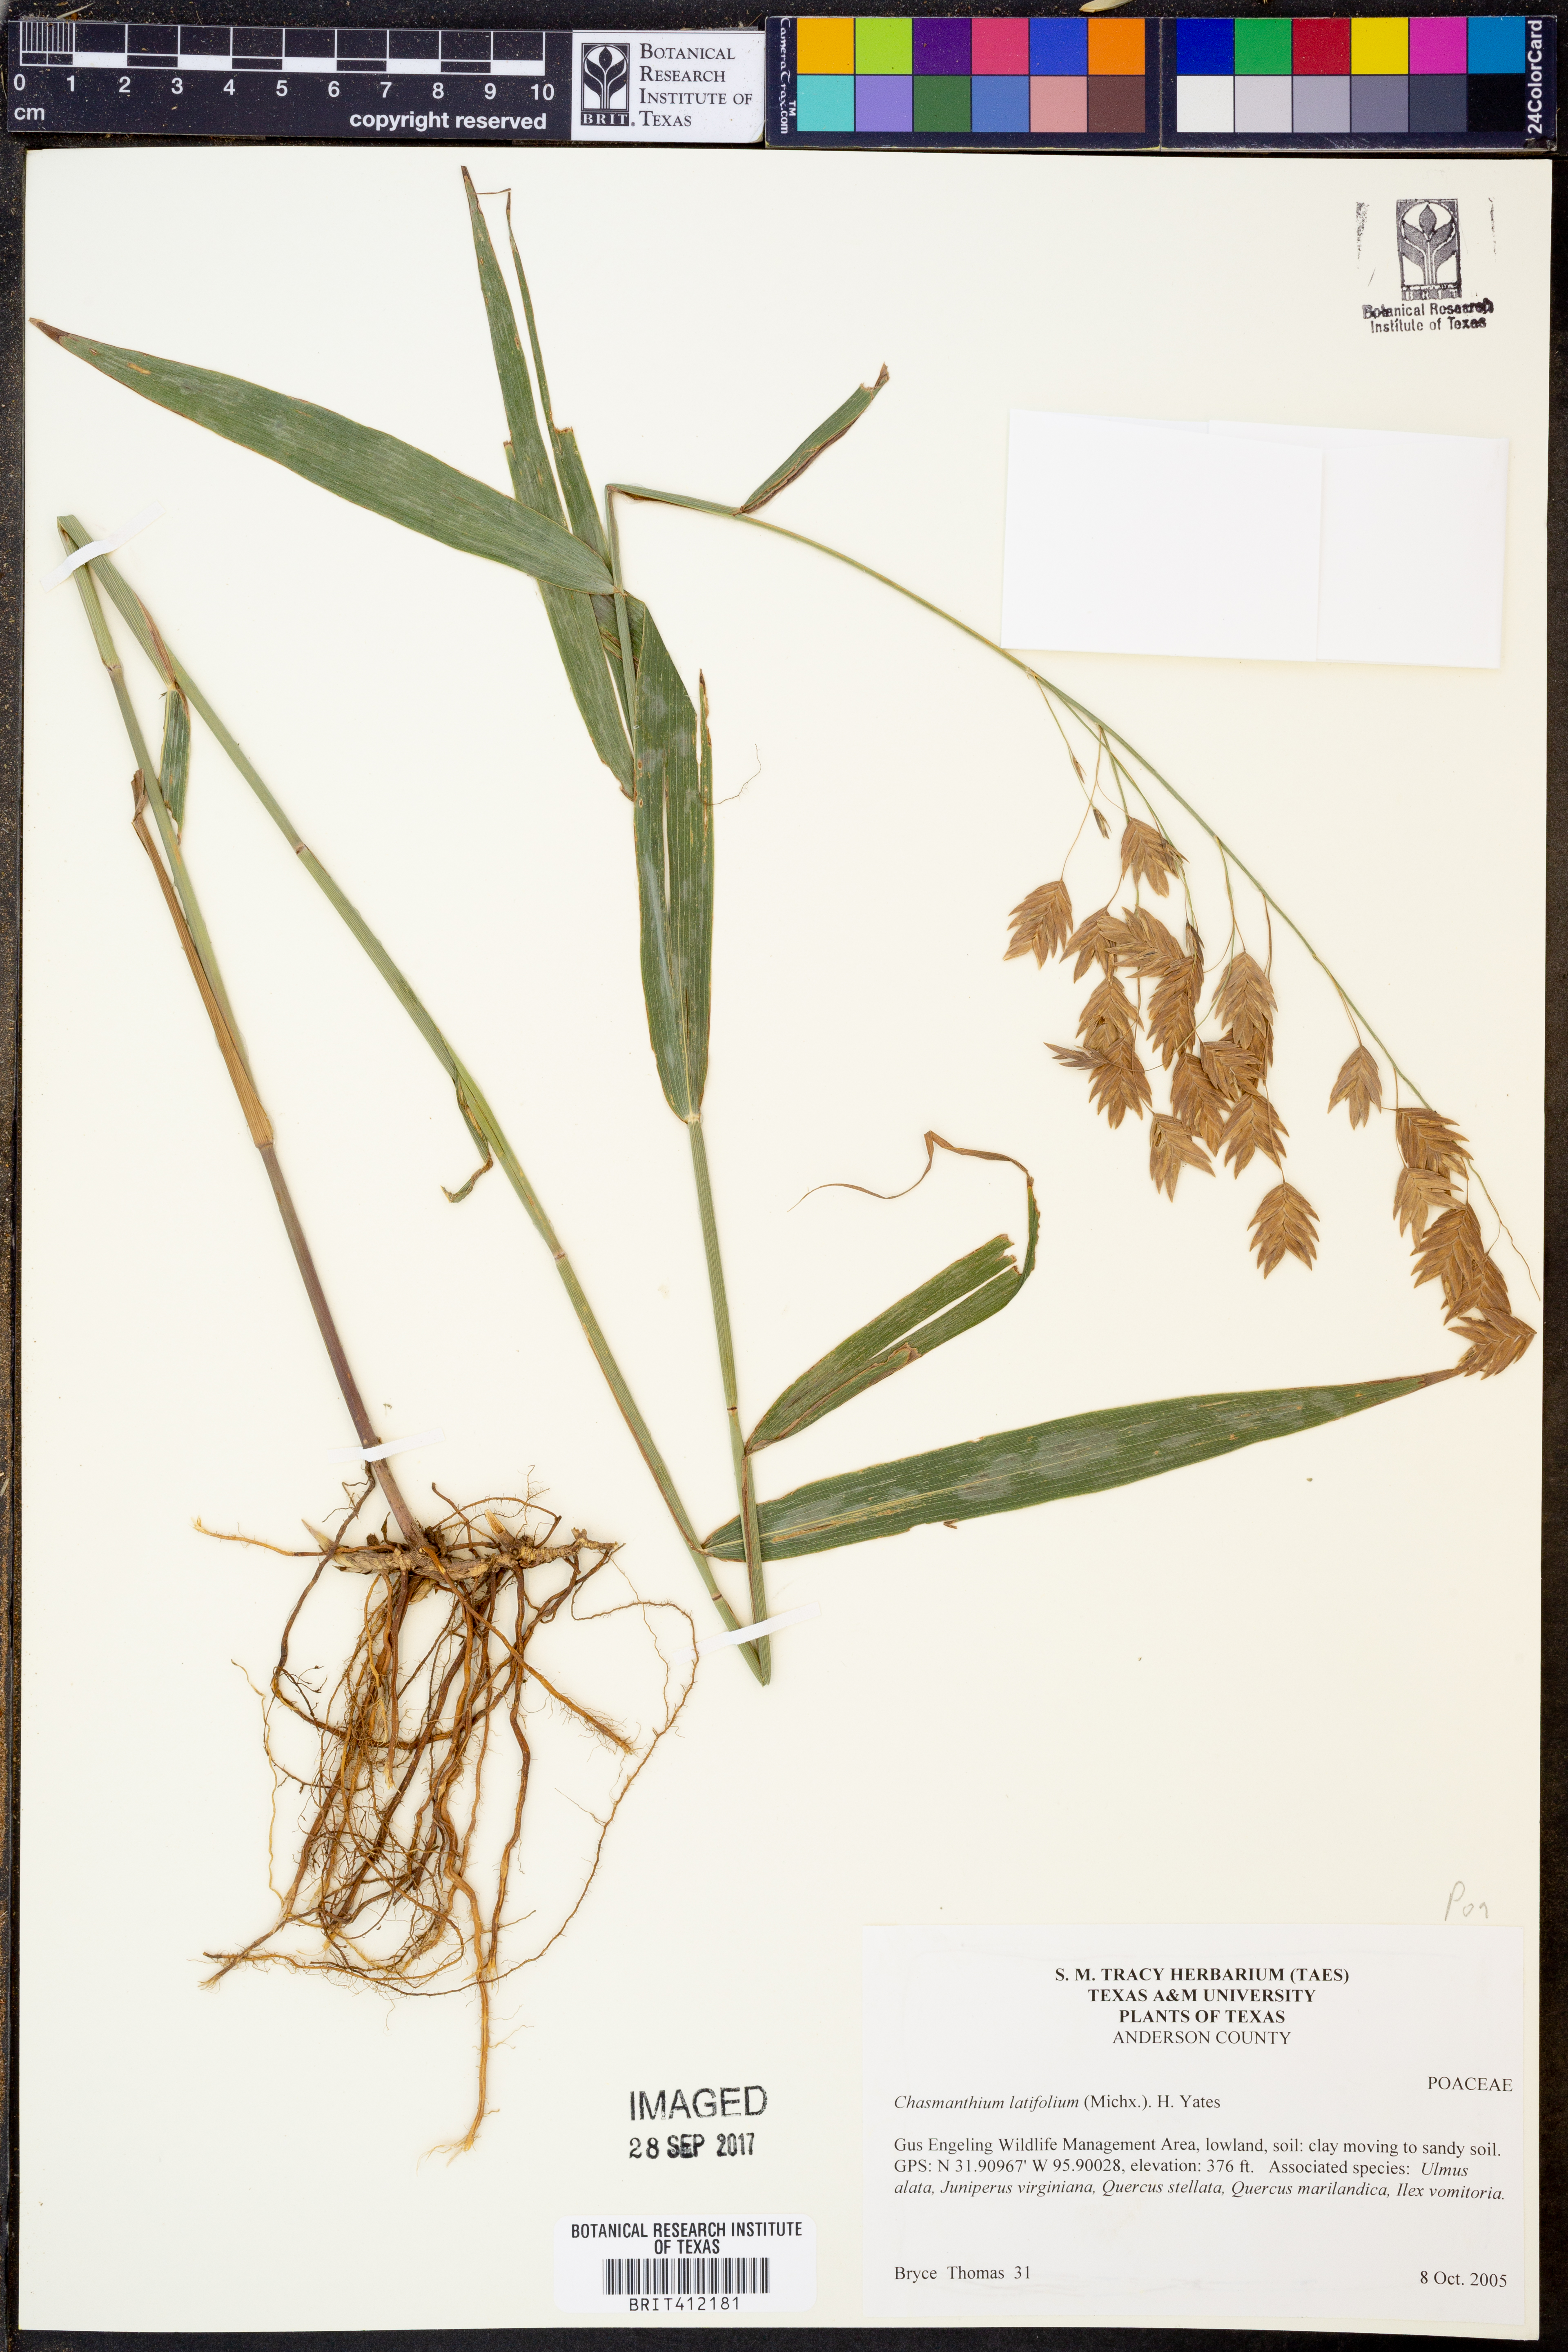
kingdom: Plantae
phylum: Tracheophyta
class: Liliopsida
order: Poales
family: Poaceae
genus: Chasmanthium
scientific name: Chasmanthium latifolium
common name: Broad-leaved chasmanthium
